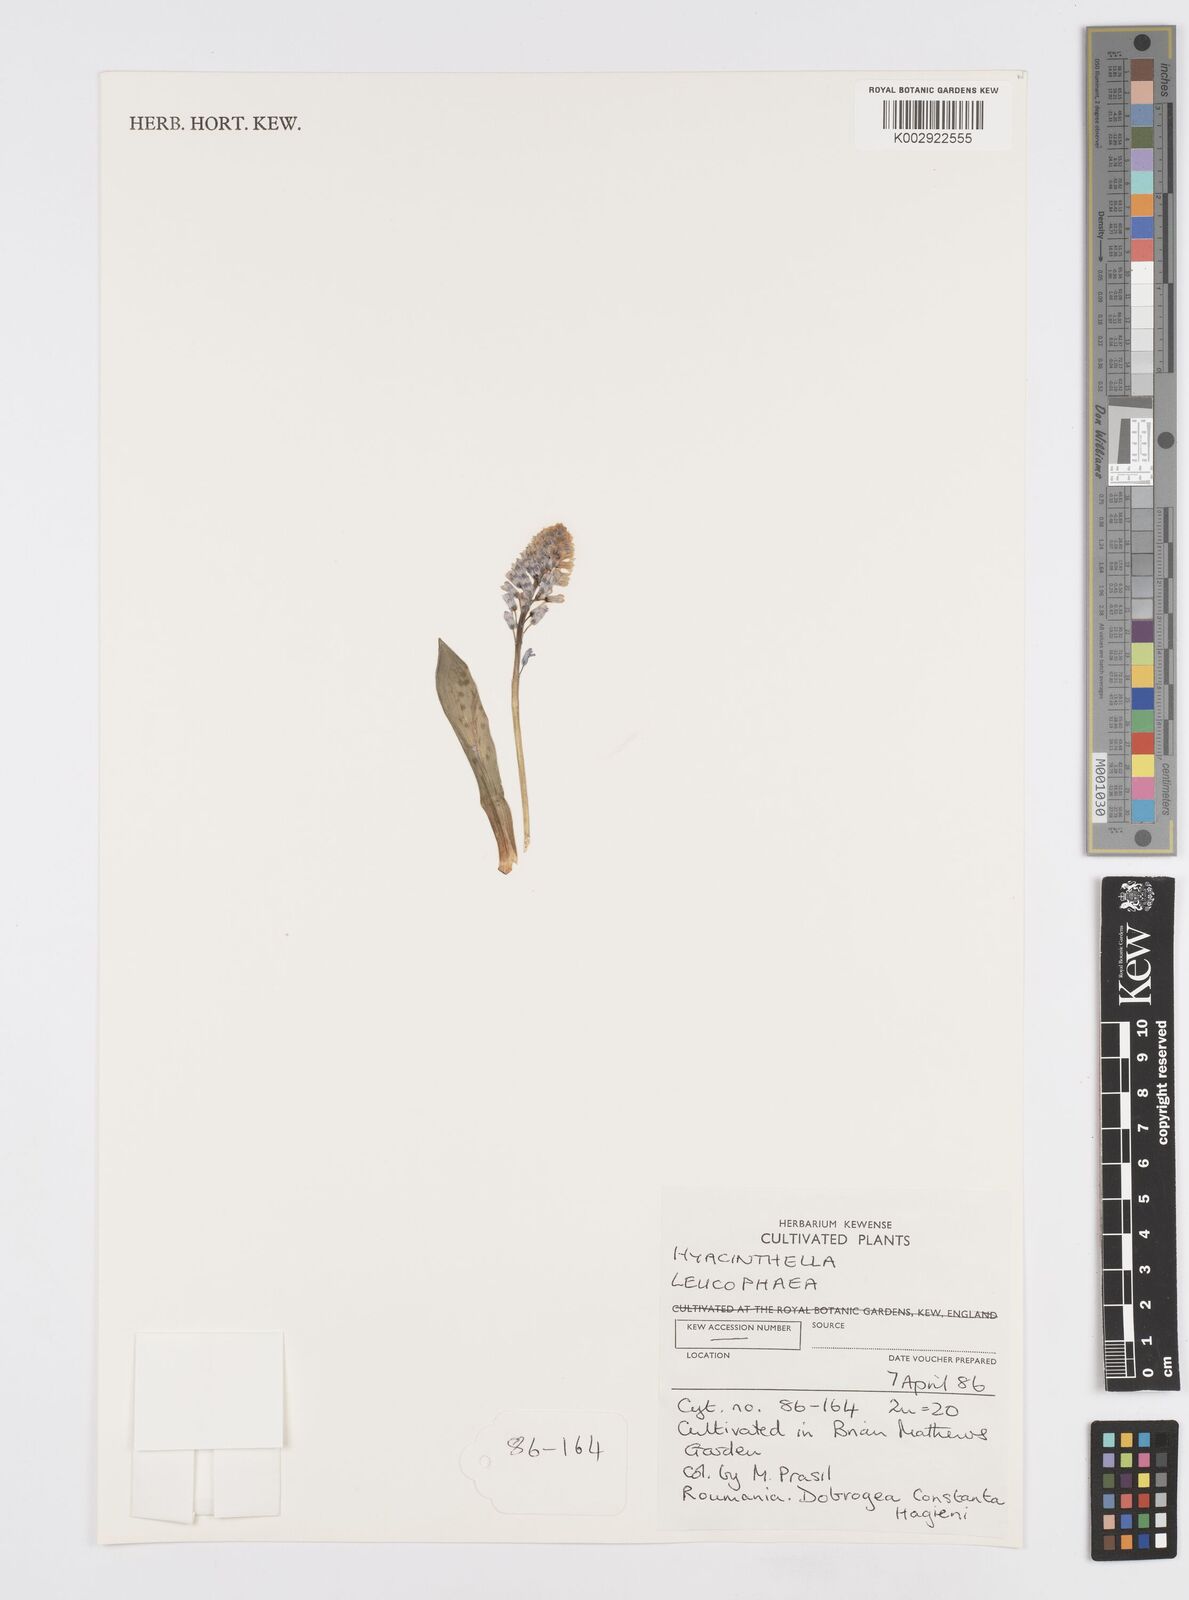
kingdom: Plantae
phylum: Tracheophyta
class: Liliopsida
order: Asparagales
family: Asparagaceae
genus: Hyacinthella
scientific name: Hyacinthella leucophaea
